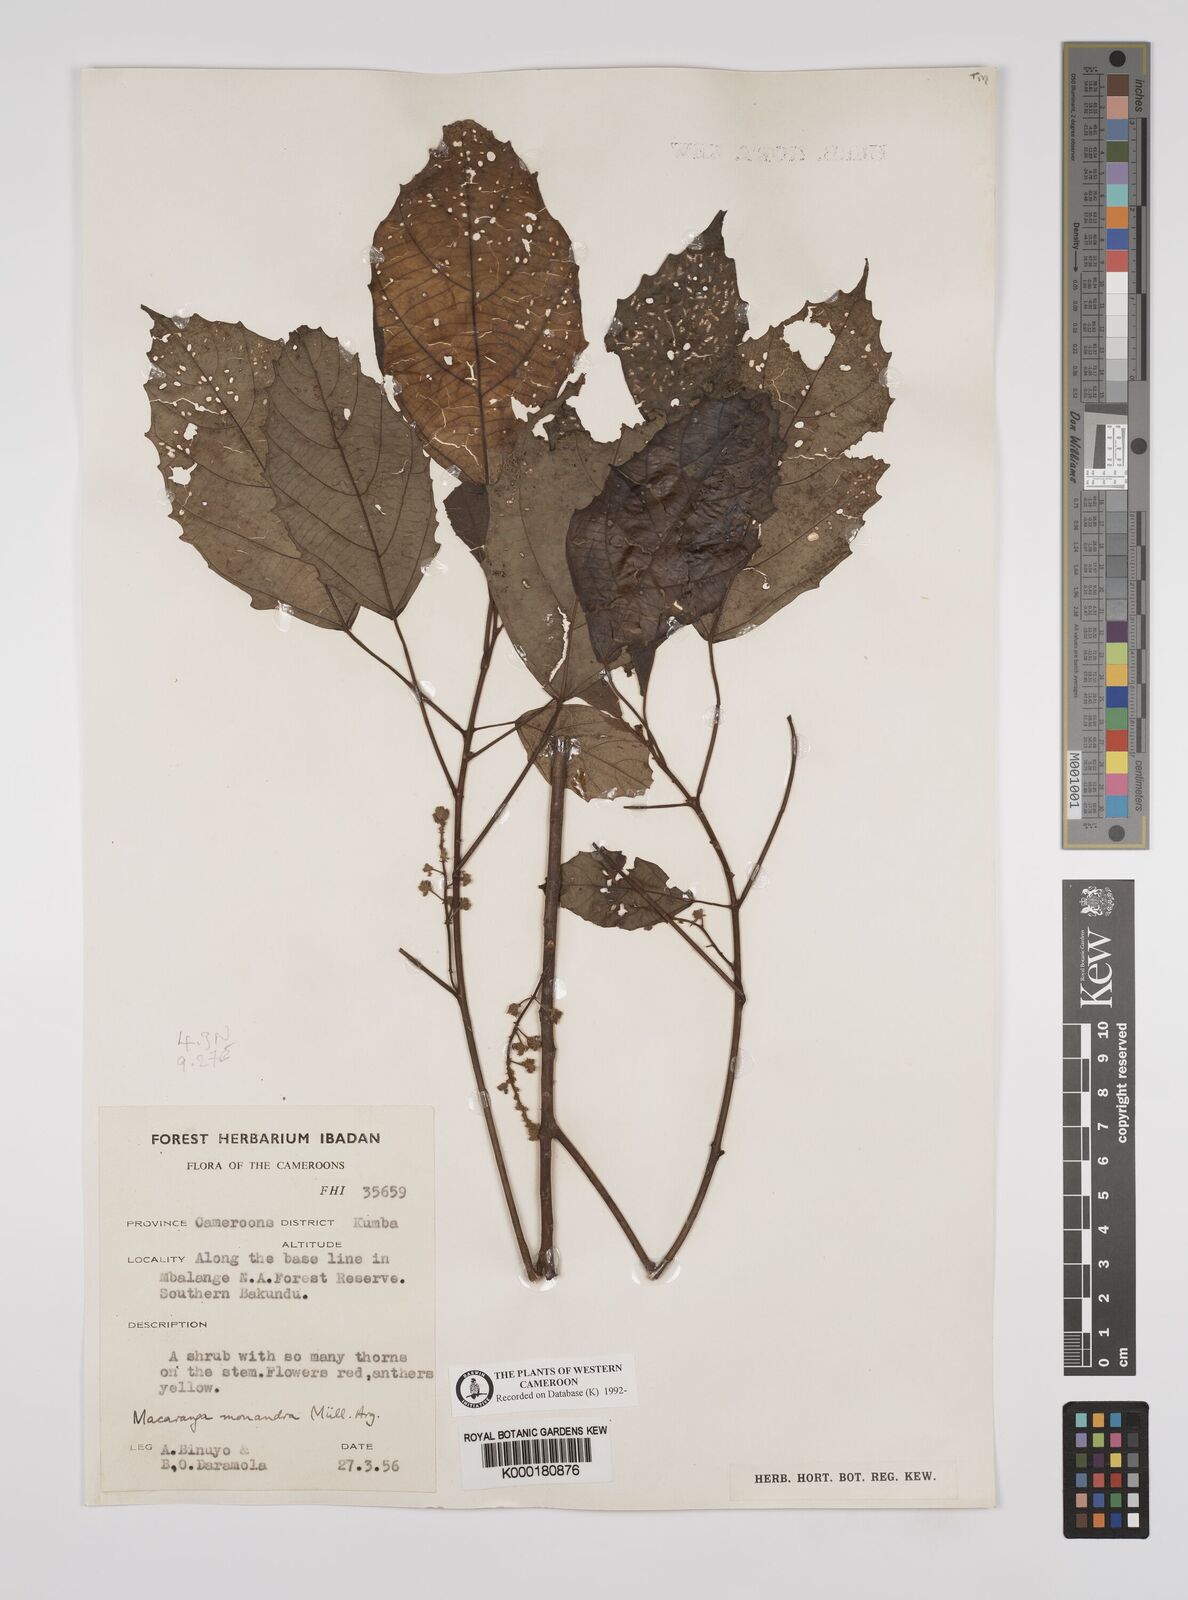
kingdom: Plantae
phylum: Tracheophyta
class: Magnoliopsida
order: Malpighiales
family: Euphorbiaceae
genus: Macaranga
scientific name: Macaranga
